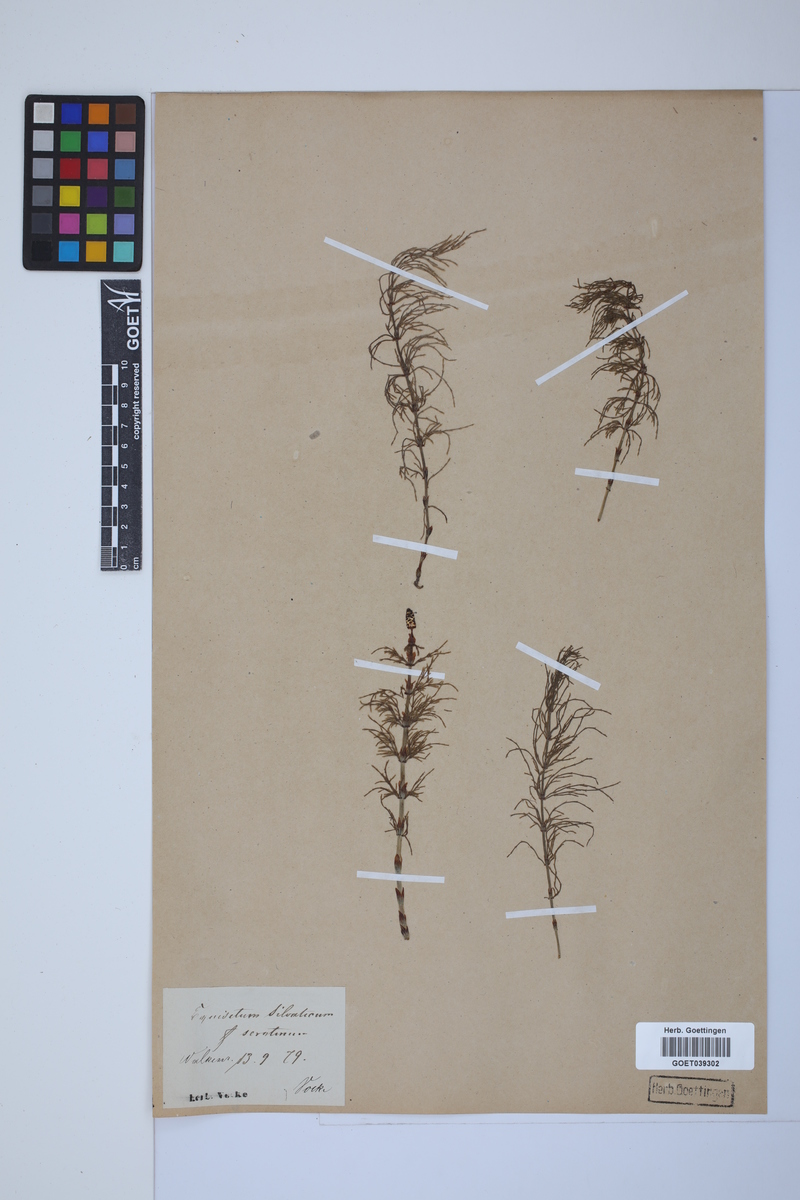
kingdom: Plantae
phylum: Tracheophyta
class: Polypodiopsida
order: Equisetales
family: Equisetaceae
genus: Equisetum
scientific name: Equisetum sylvaticum
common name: Wood horsetail
